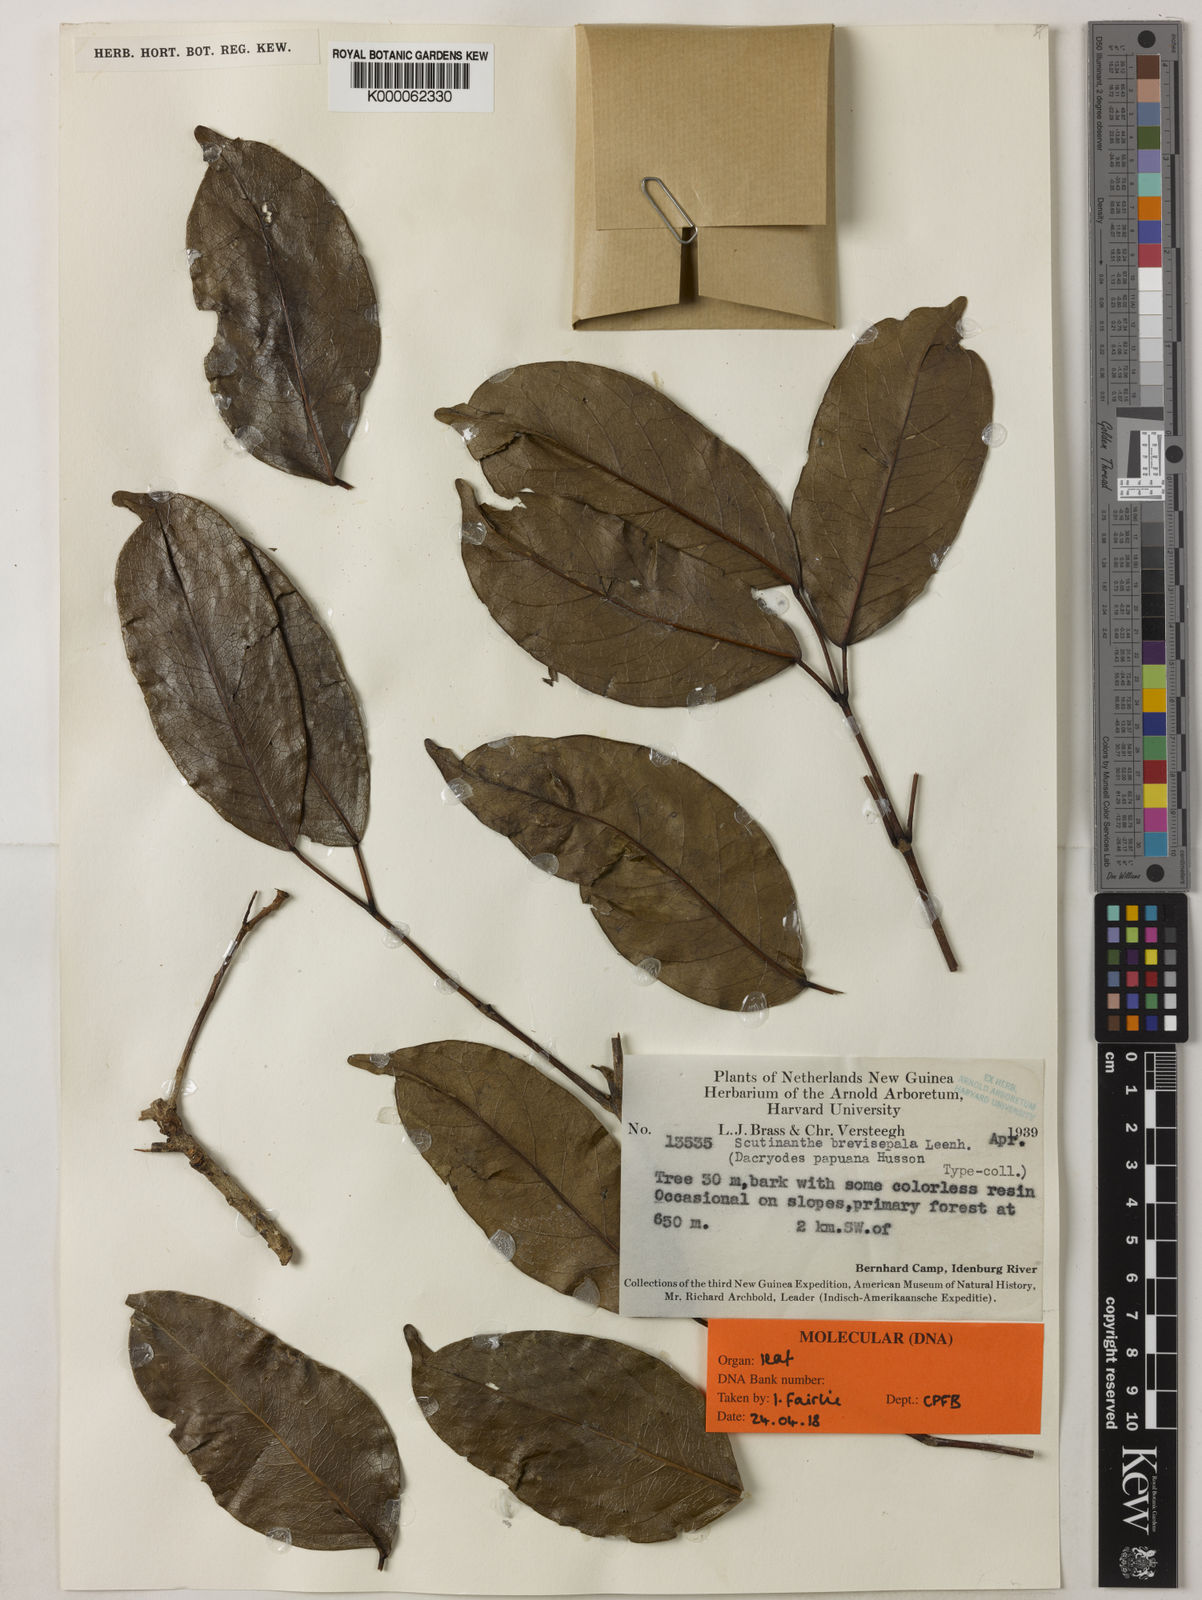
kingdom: Plantae
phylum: Tracheophyta
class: Magnoliopsida
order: Sapindales
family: Burseraceae
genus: Scutinanthe
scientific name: Scutinanthe brevisepala
